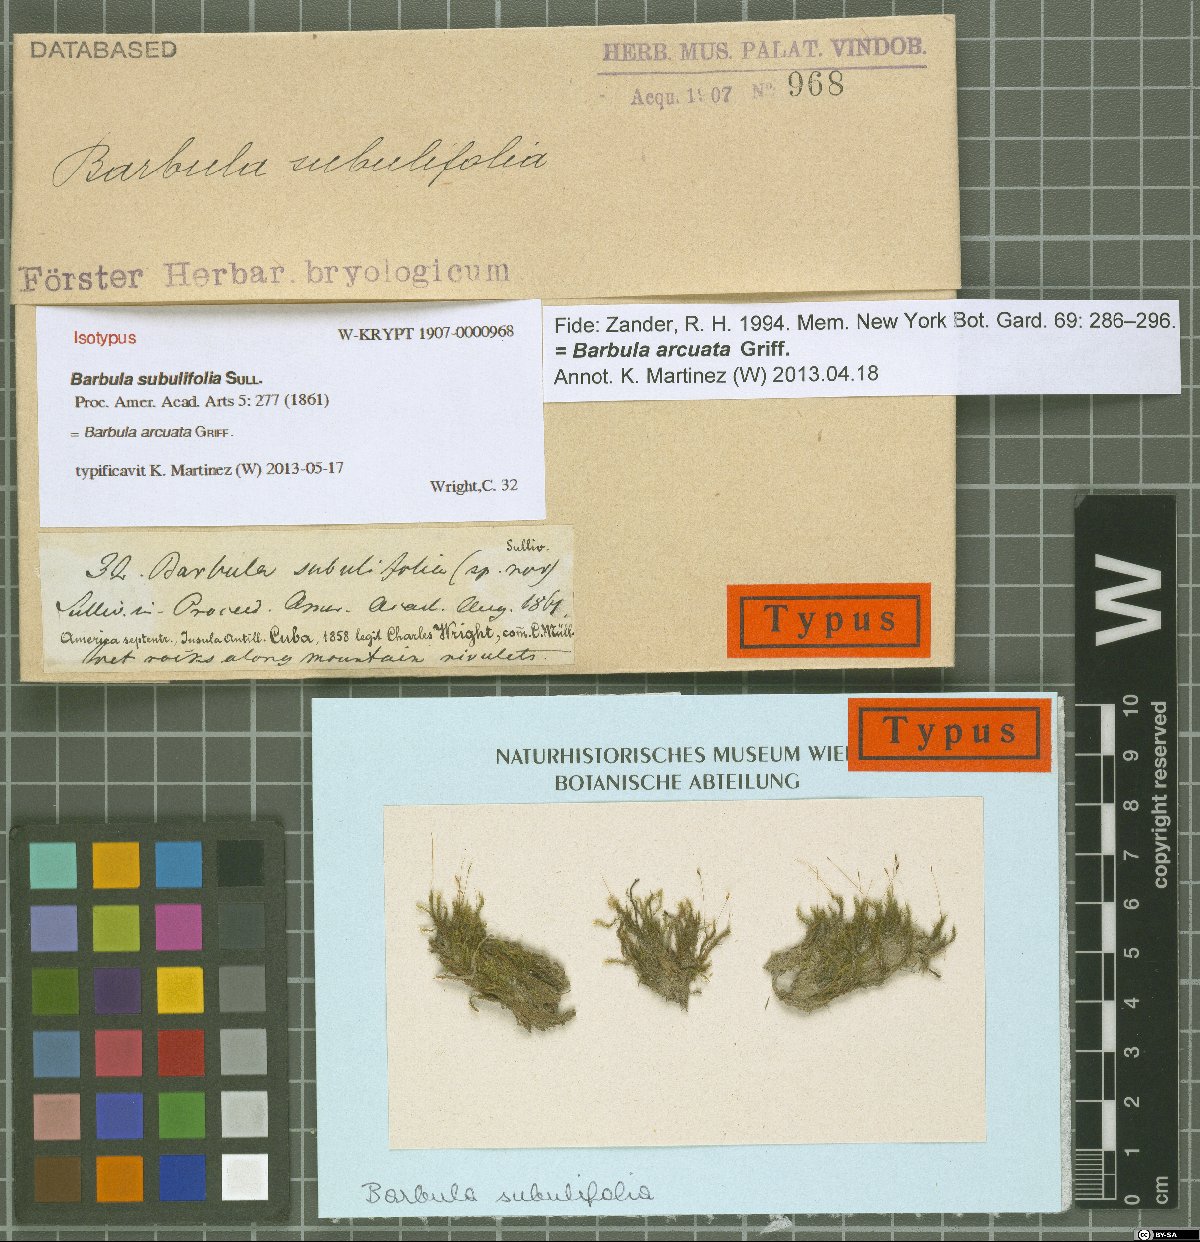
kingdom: Plantae
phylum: Bryophyta
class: Bryopsida
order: Pottiales
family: Pottiaceae
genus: Hydrogonium
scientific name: Hydrogonium arcuatum
